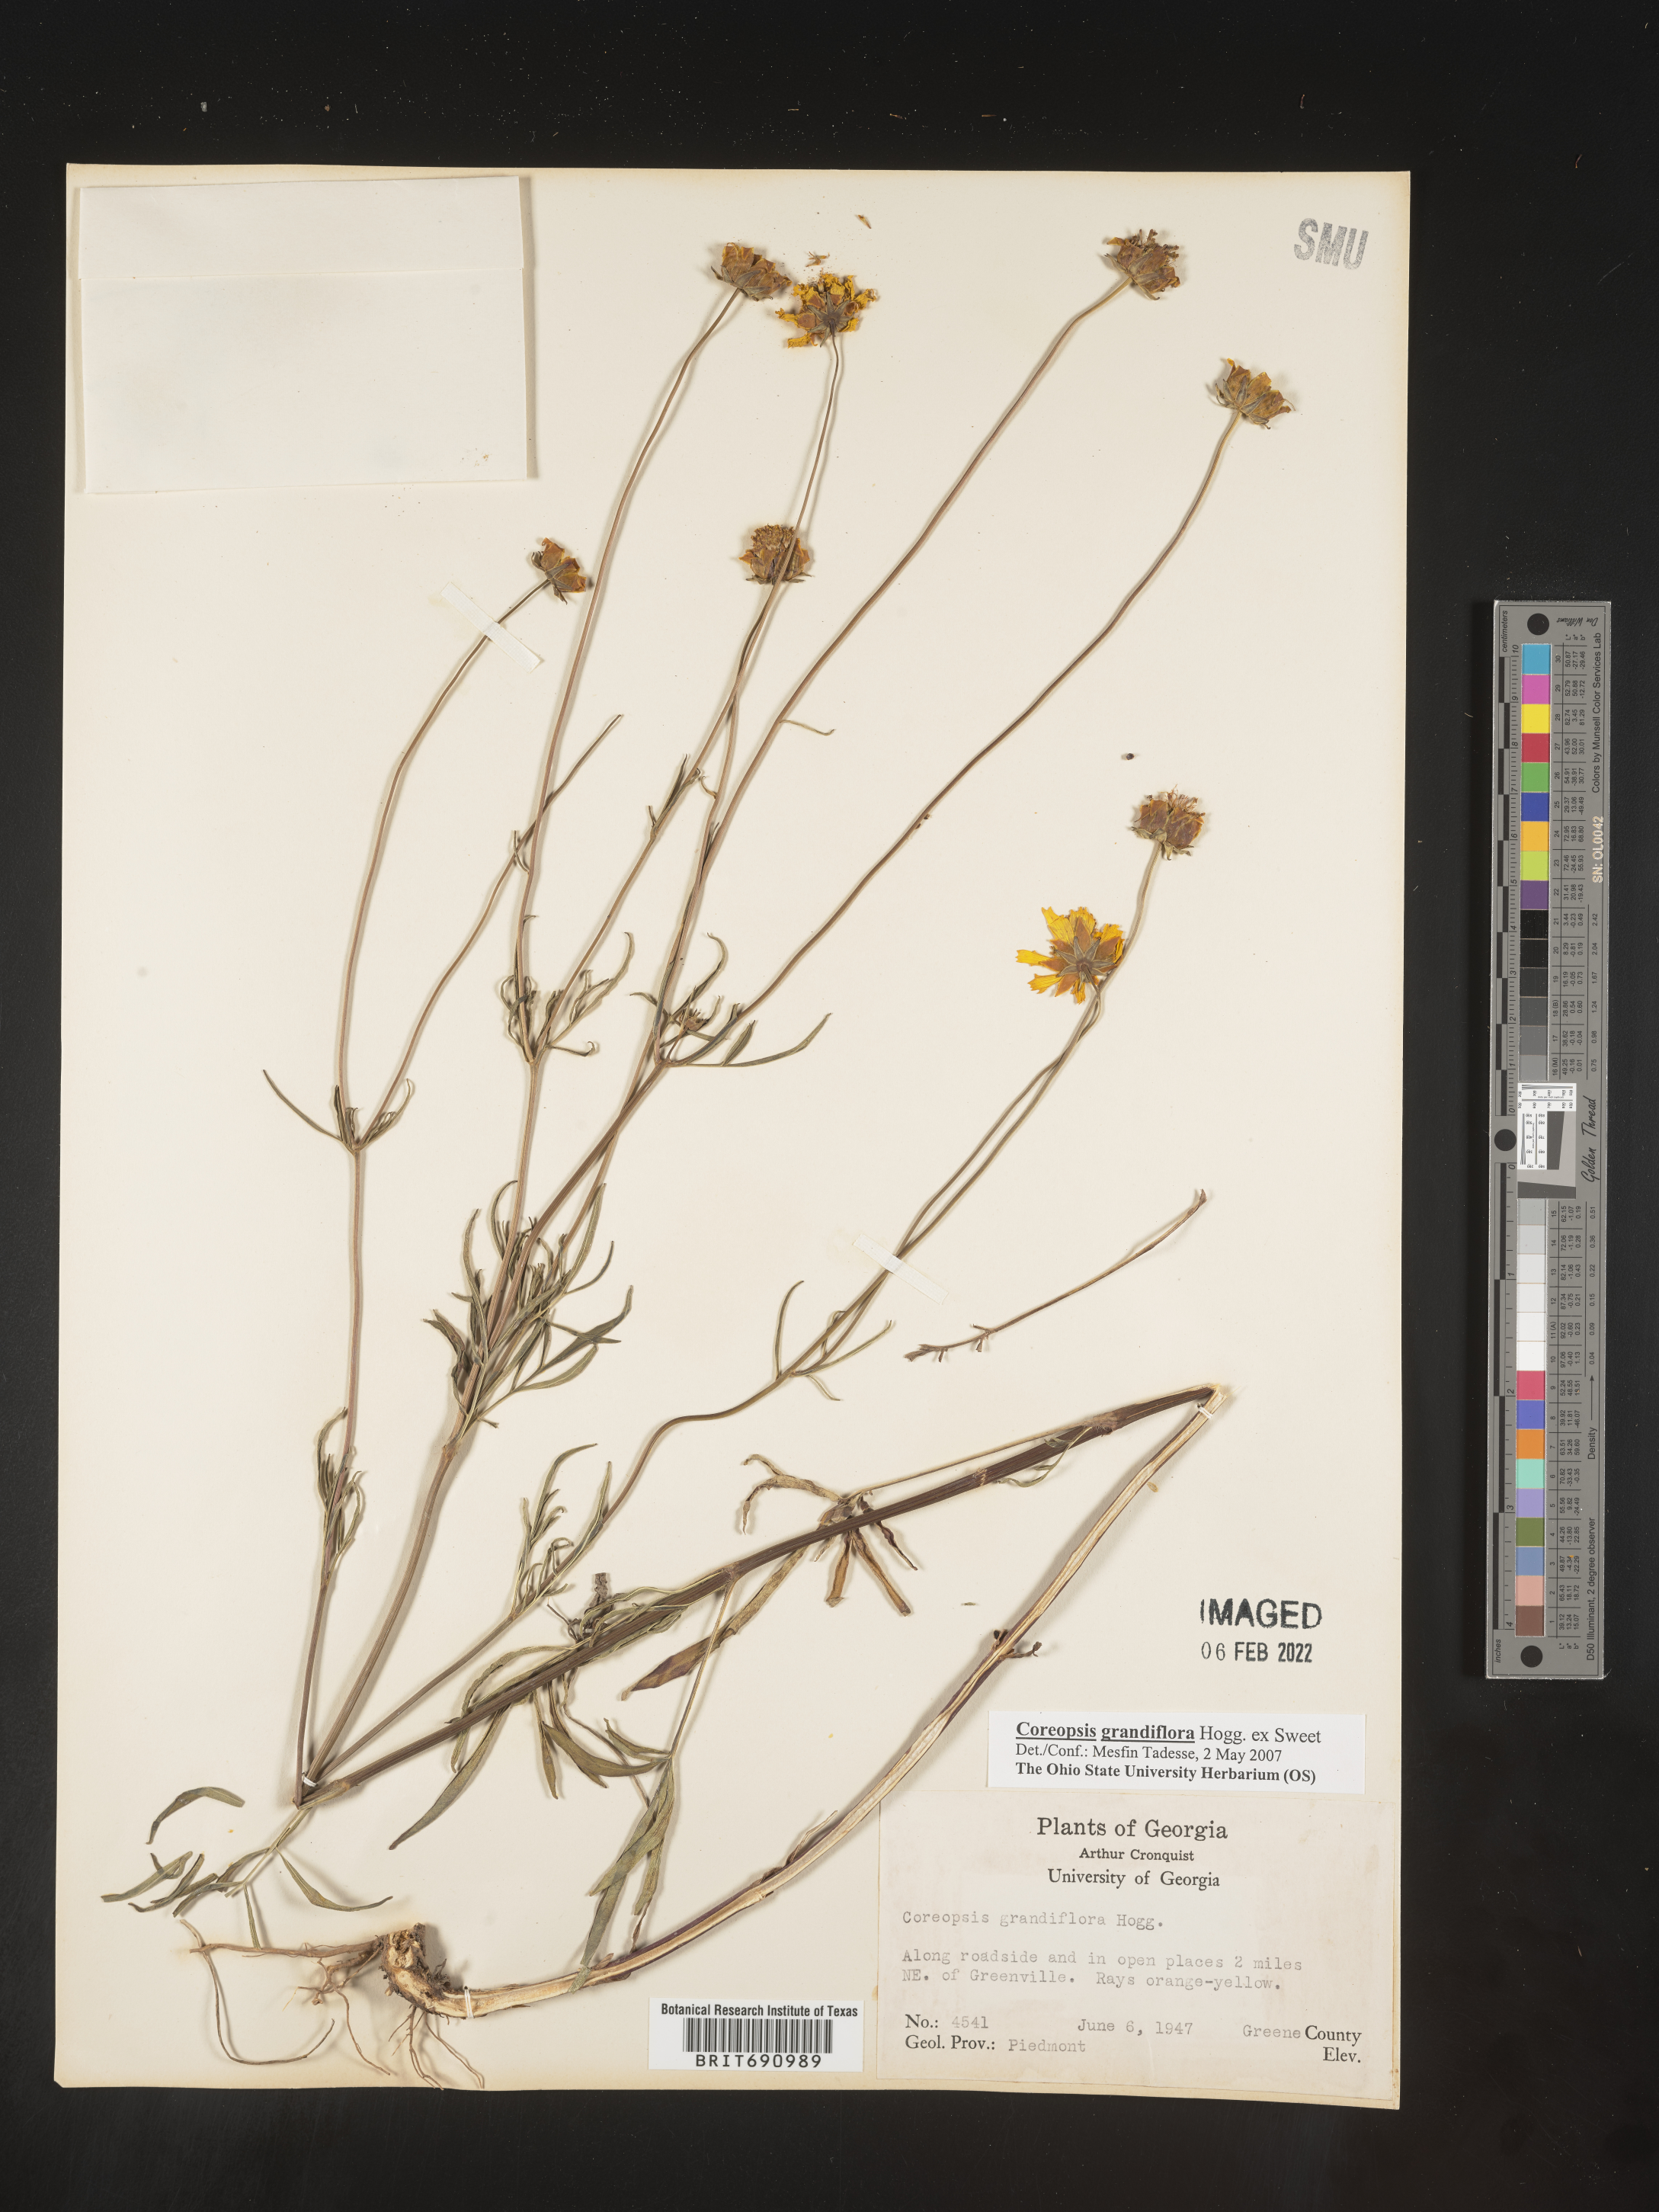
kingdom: Plantae
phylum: Tracheophyta
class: Magnoliopsida
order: Asterales
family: Asteraceae
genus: Coreopsis
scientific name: Coreopsis grandiflora
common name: Large-flowered tickseed
